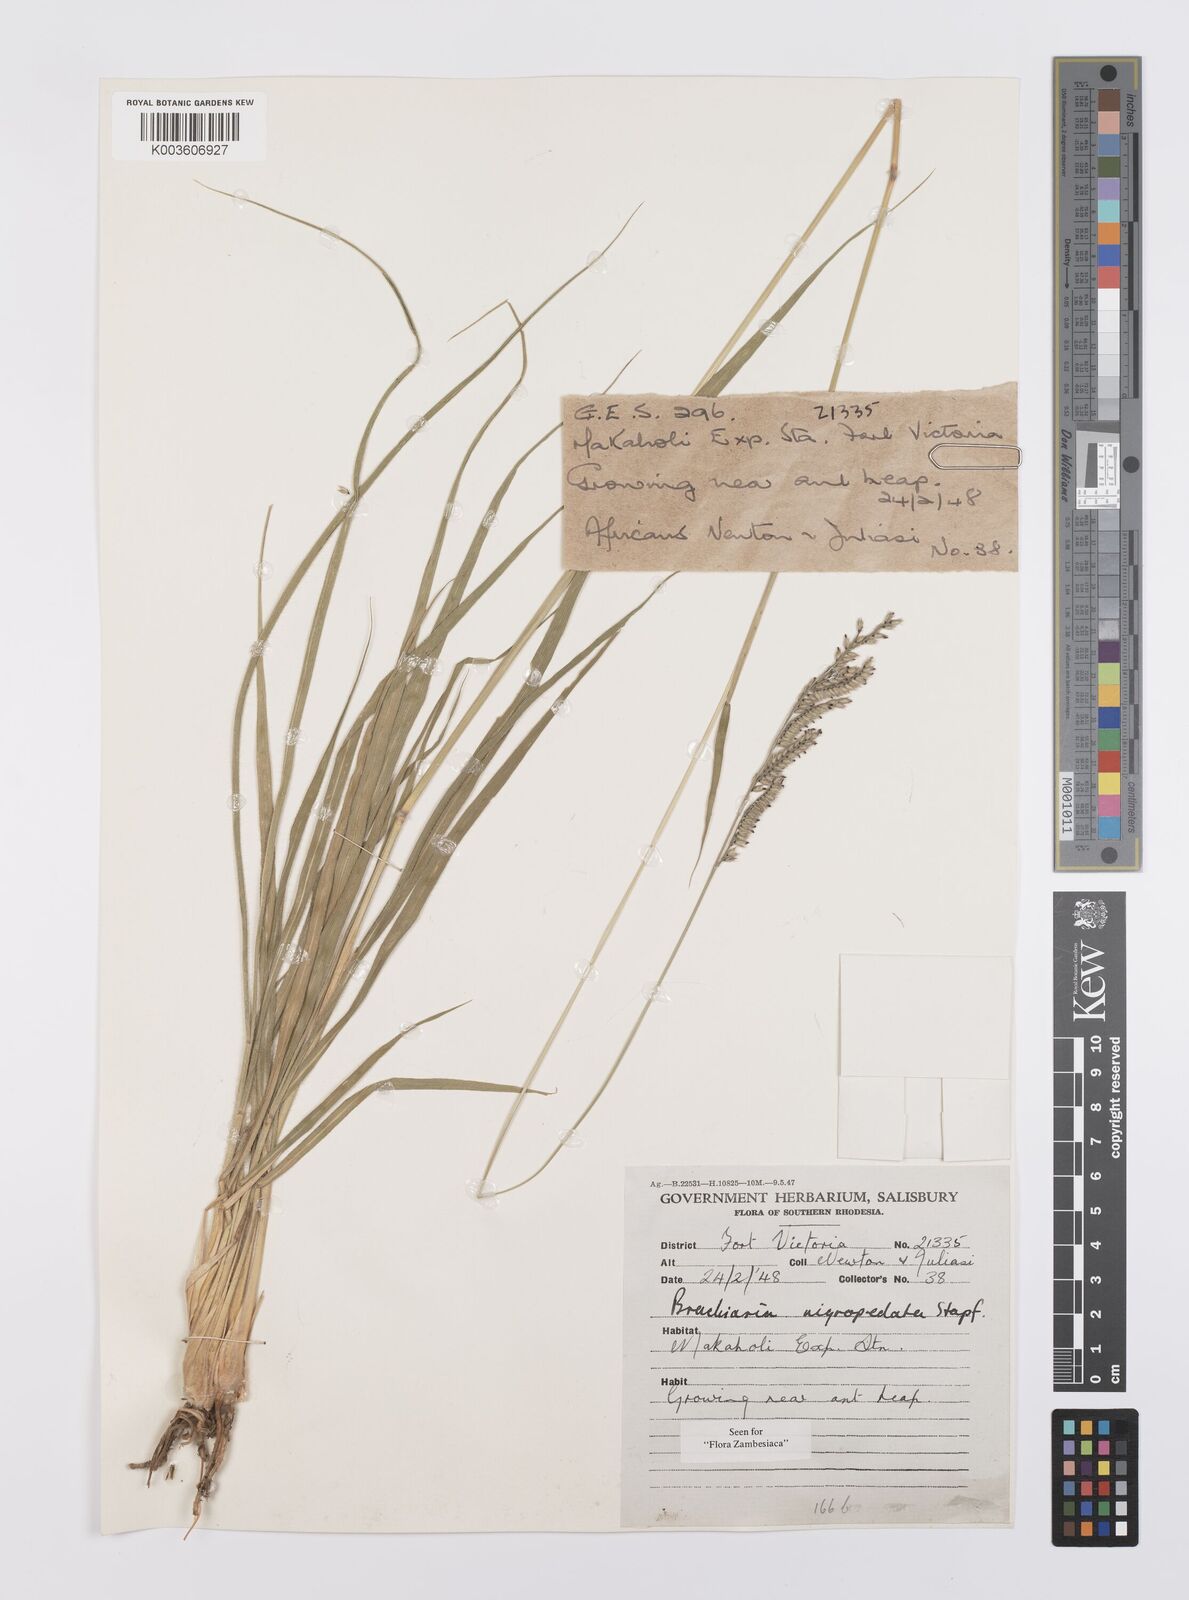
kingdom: Plantae
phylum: Tracheophyta
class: Liliopsida
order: Poales
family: Poaceae
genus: Urochloa
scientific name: Urochloa nigropedata
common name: Spotted signal grass
